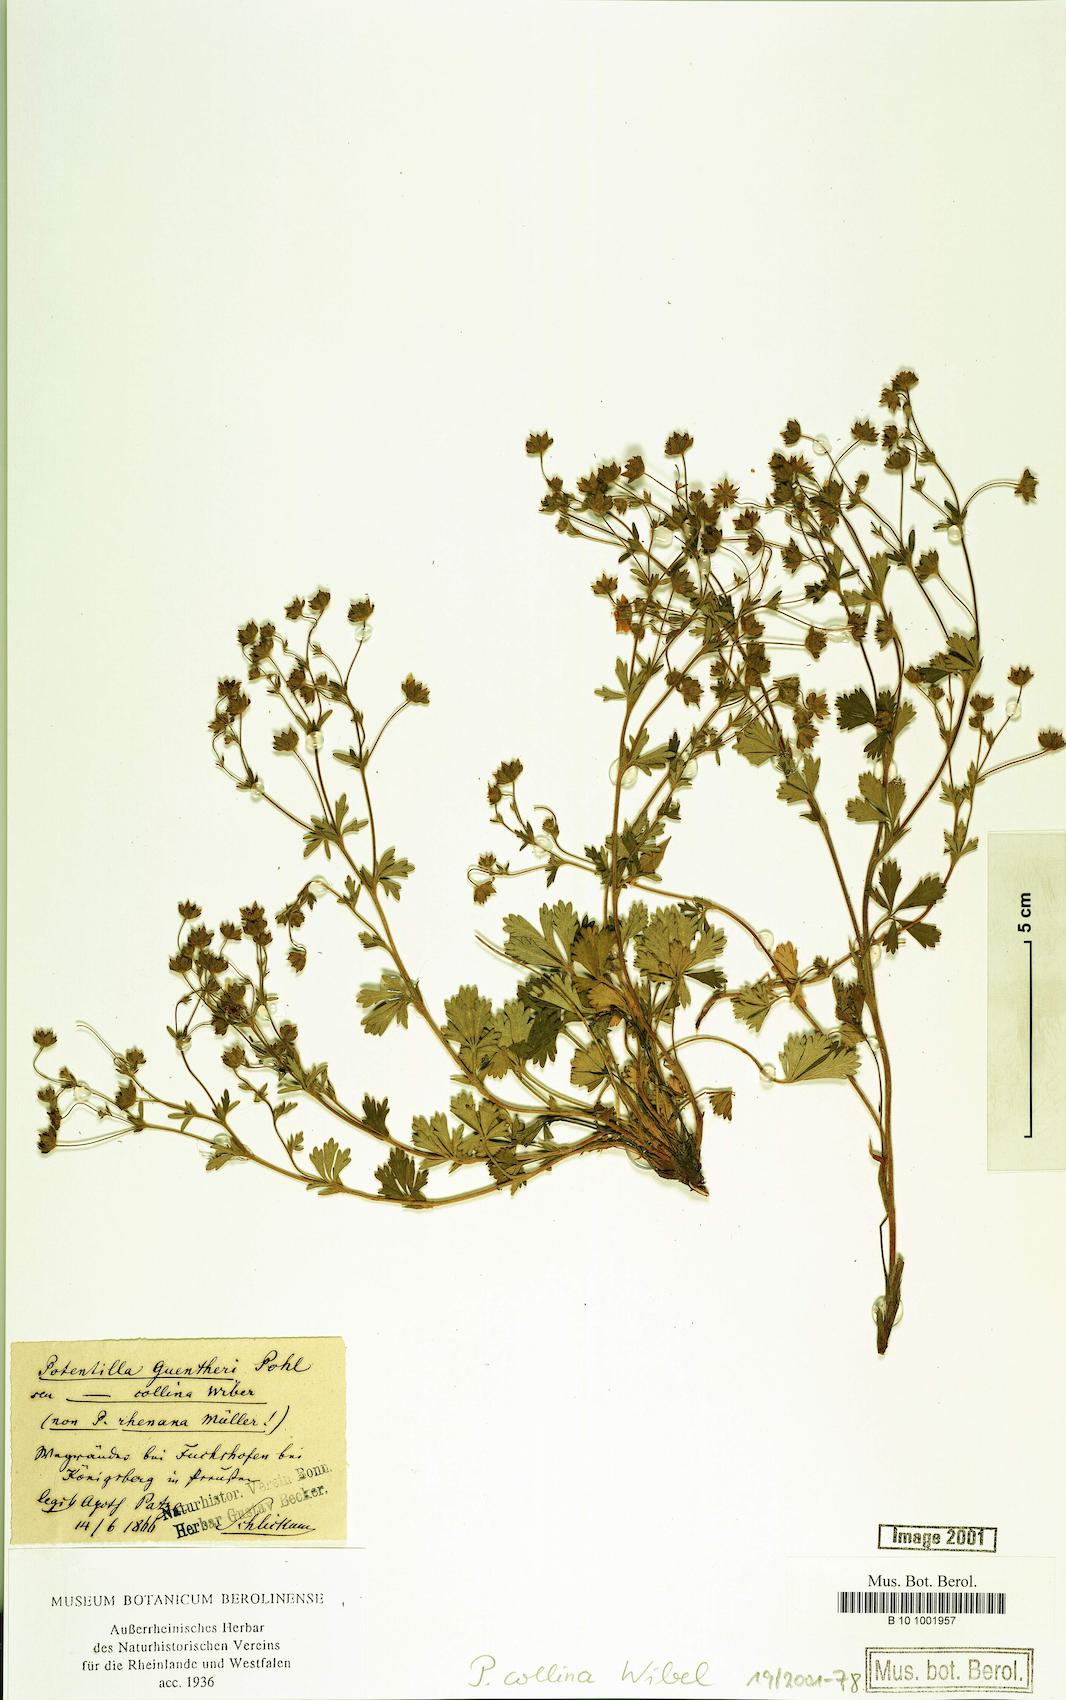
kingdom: Plantae
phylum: Tracheophyta
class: Magnoliopsida
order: Rosales
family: Rosaceae
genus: Potentilla
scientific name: Potentilla collina
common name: Palmleaf cinquefoil
